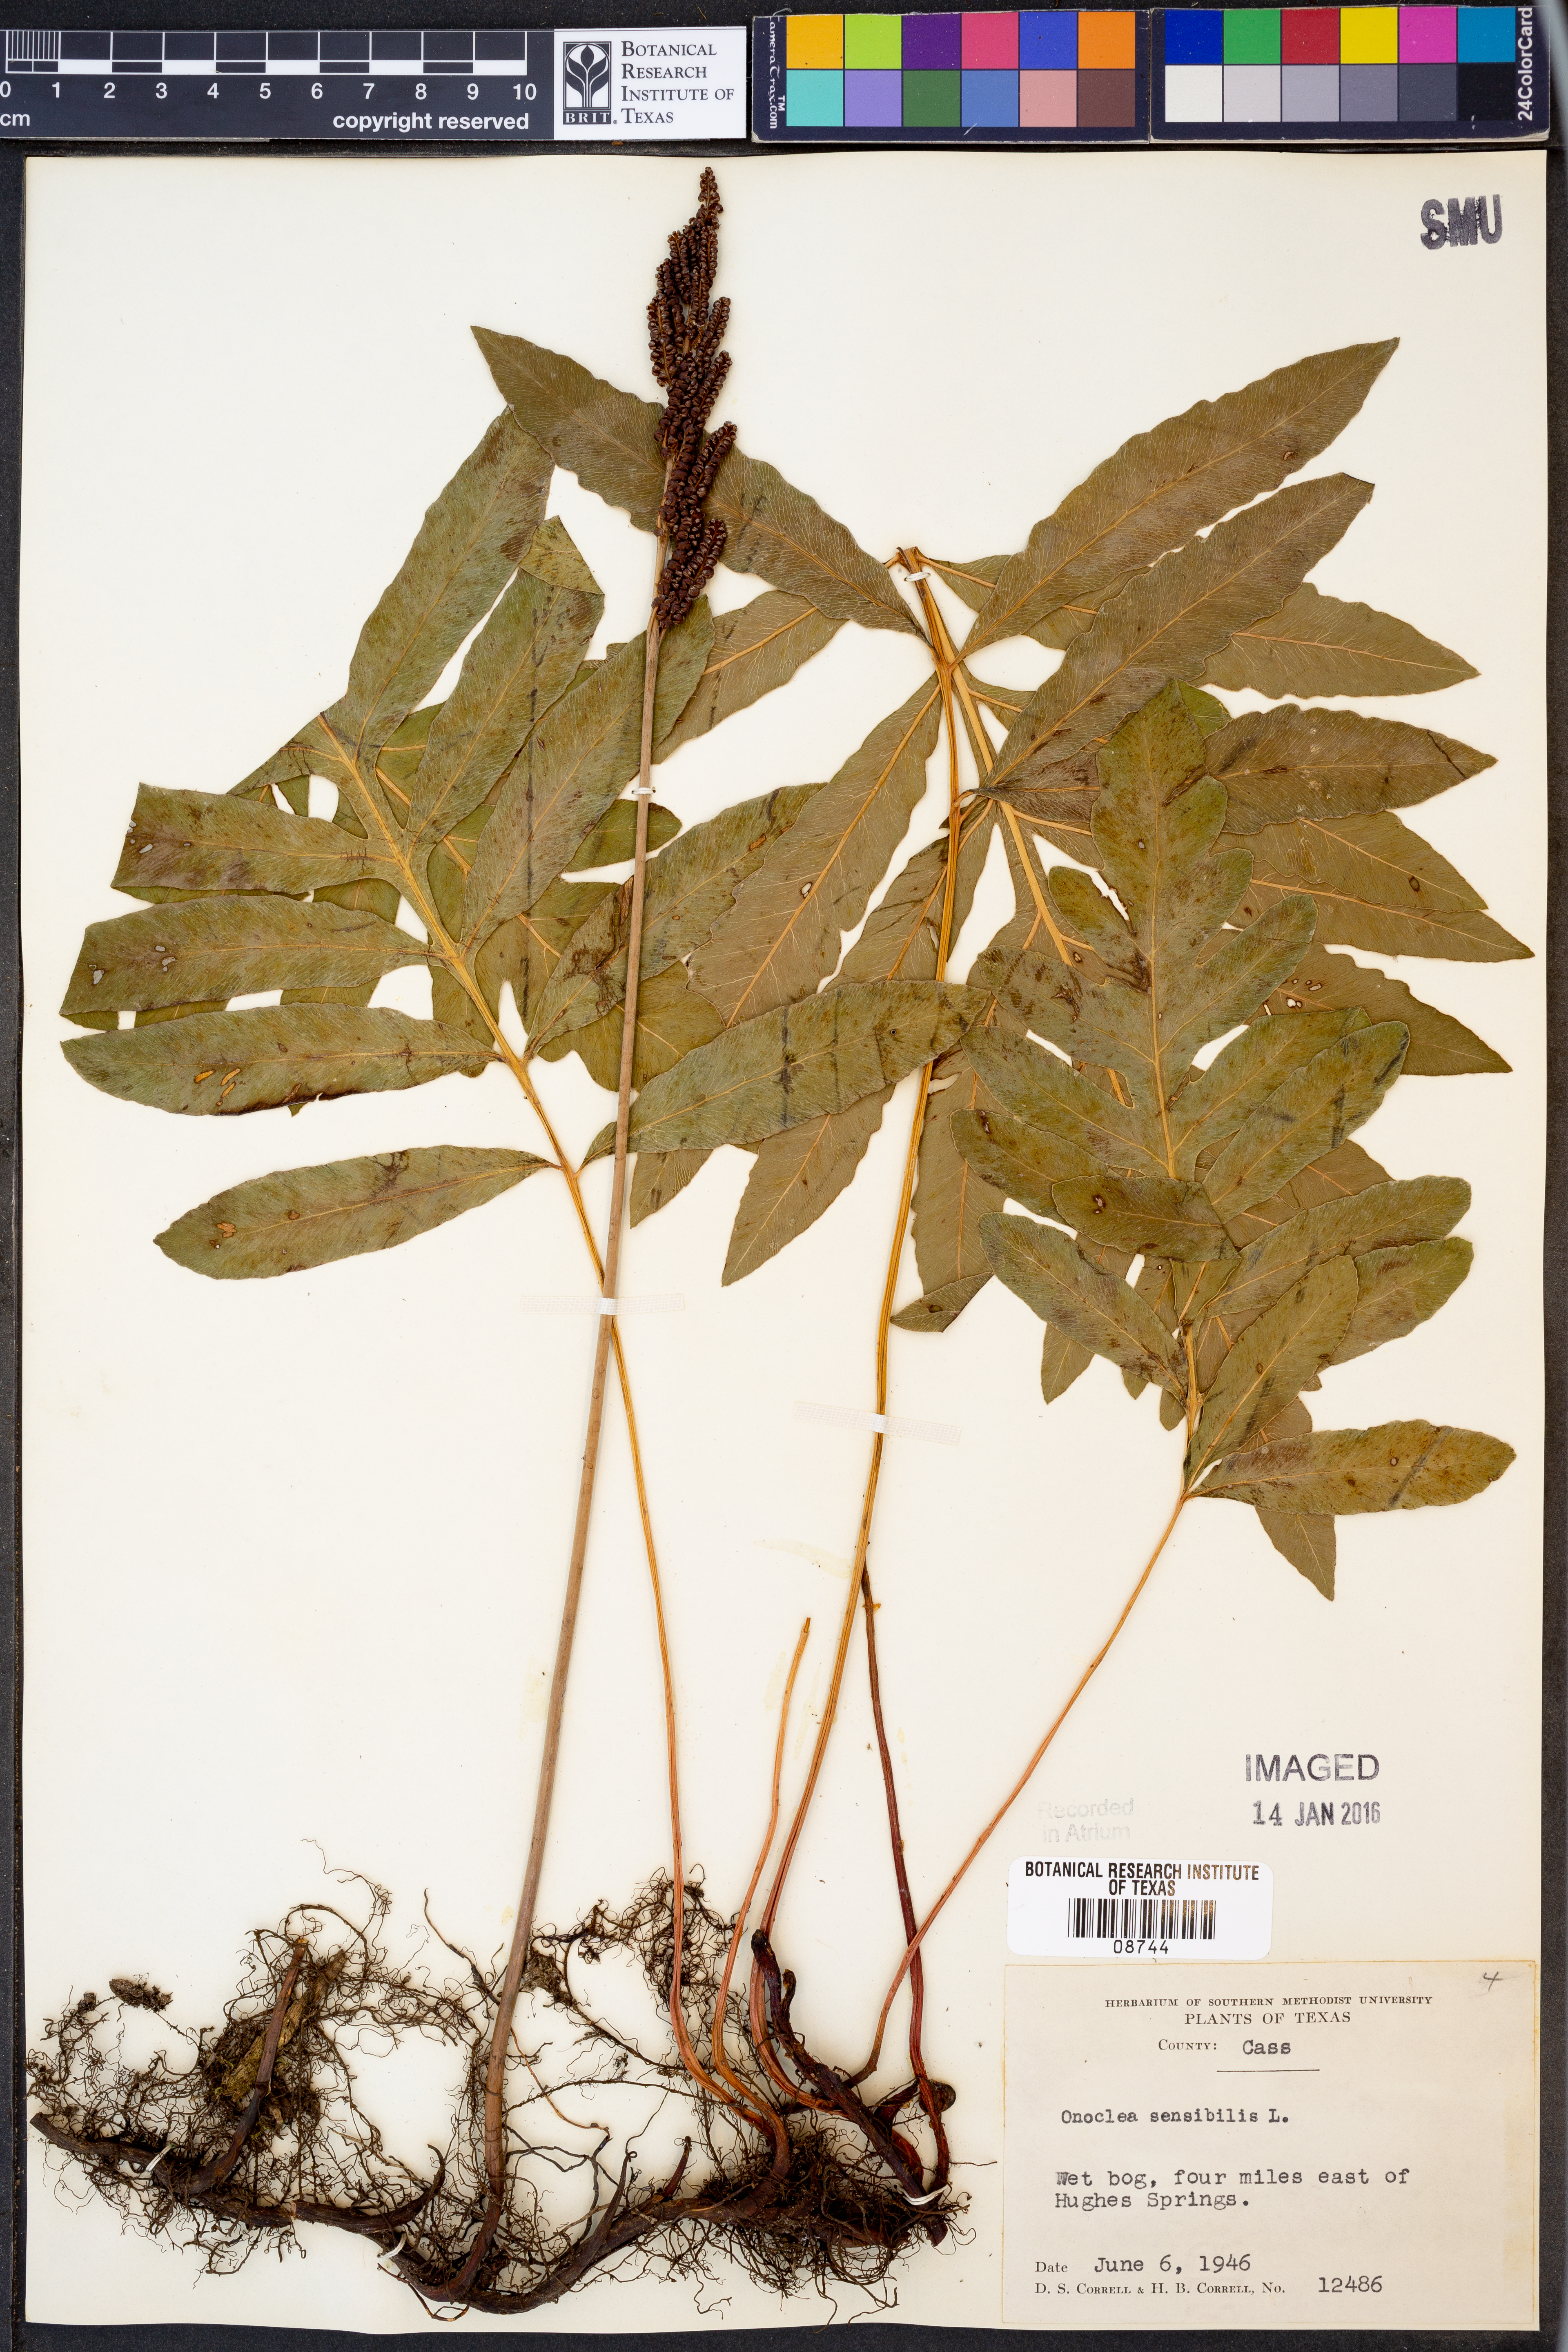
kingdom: Plantae
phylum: Tracheophyta
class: Polypodiopsida
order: Polypodiales
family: Onocleaceae
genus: Onoclea
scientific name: Onoclea sensibilis
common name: Sensitive fern
